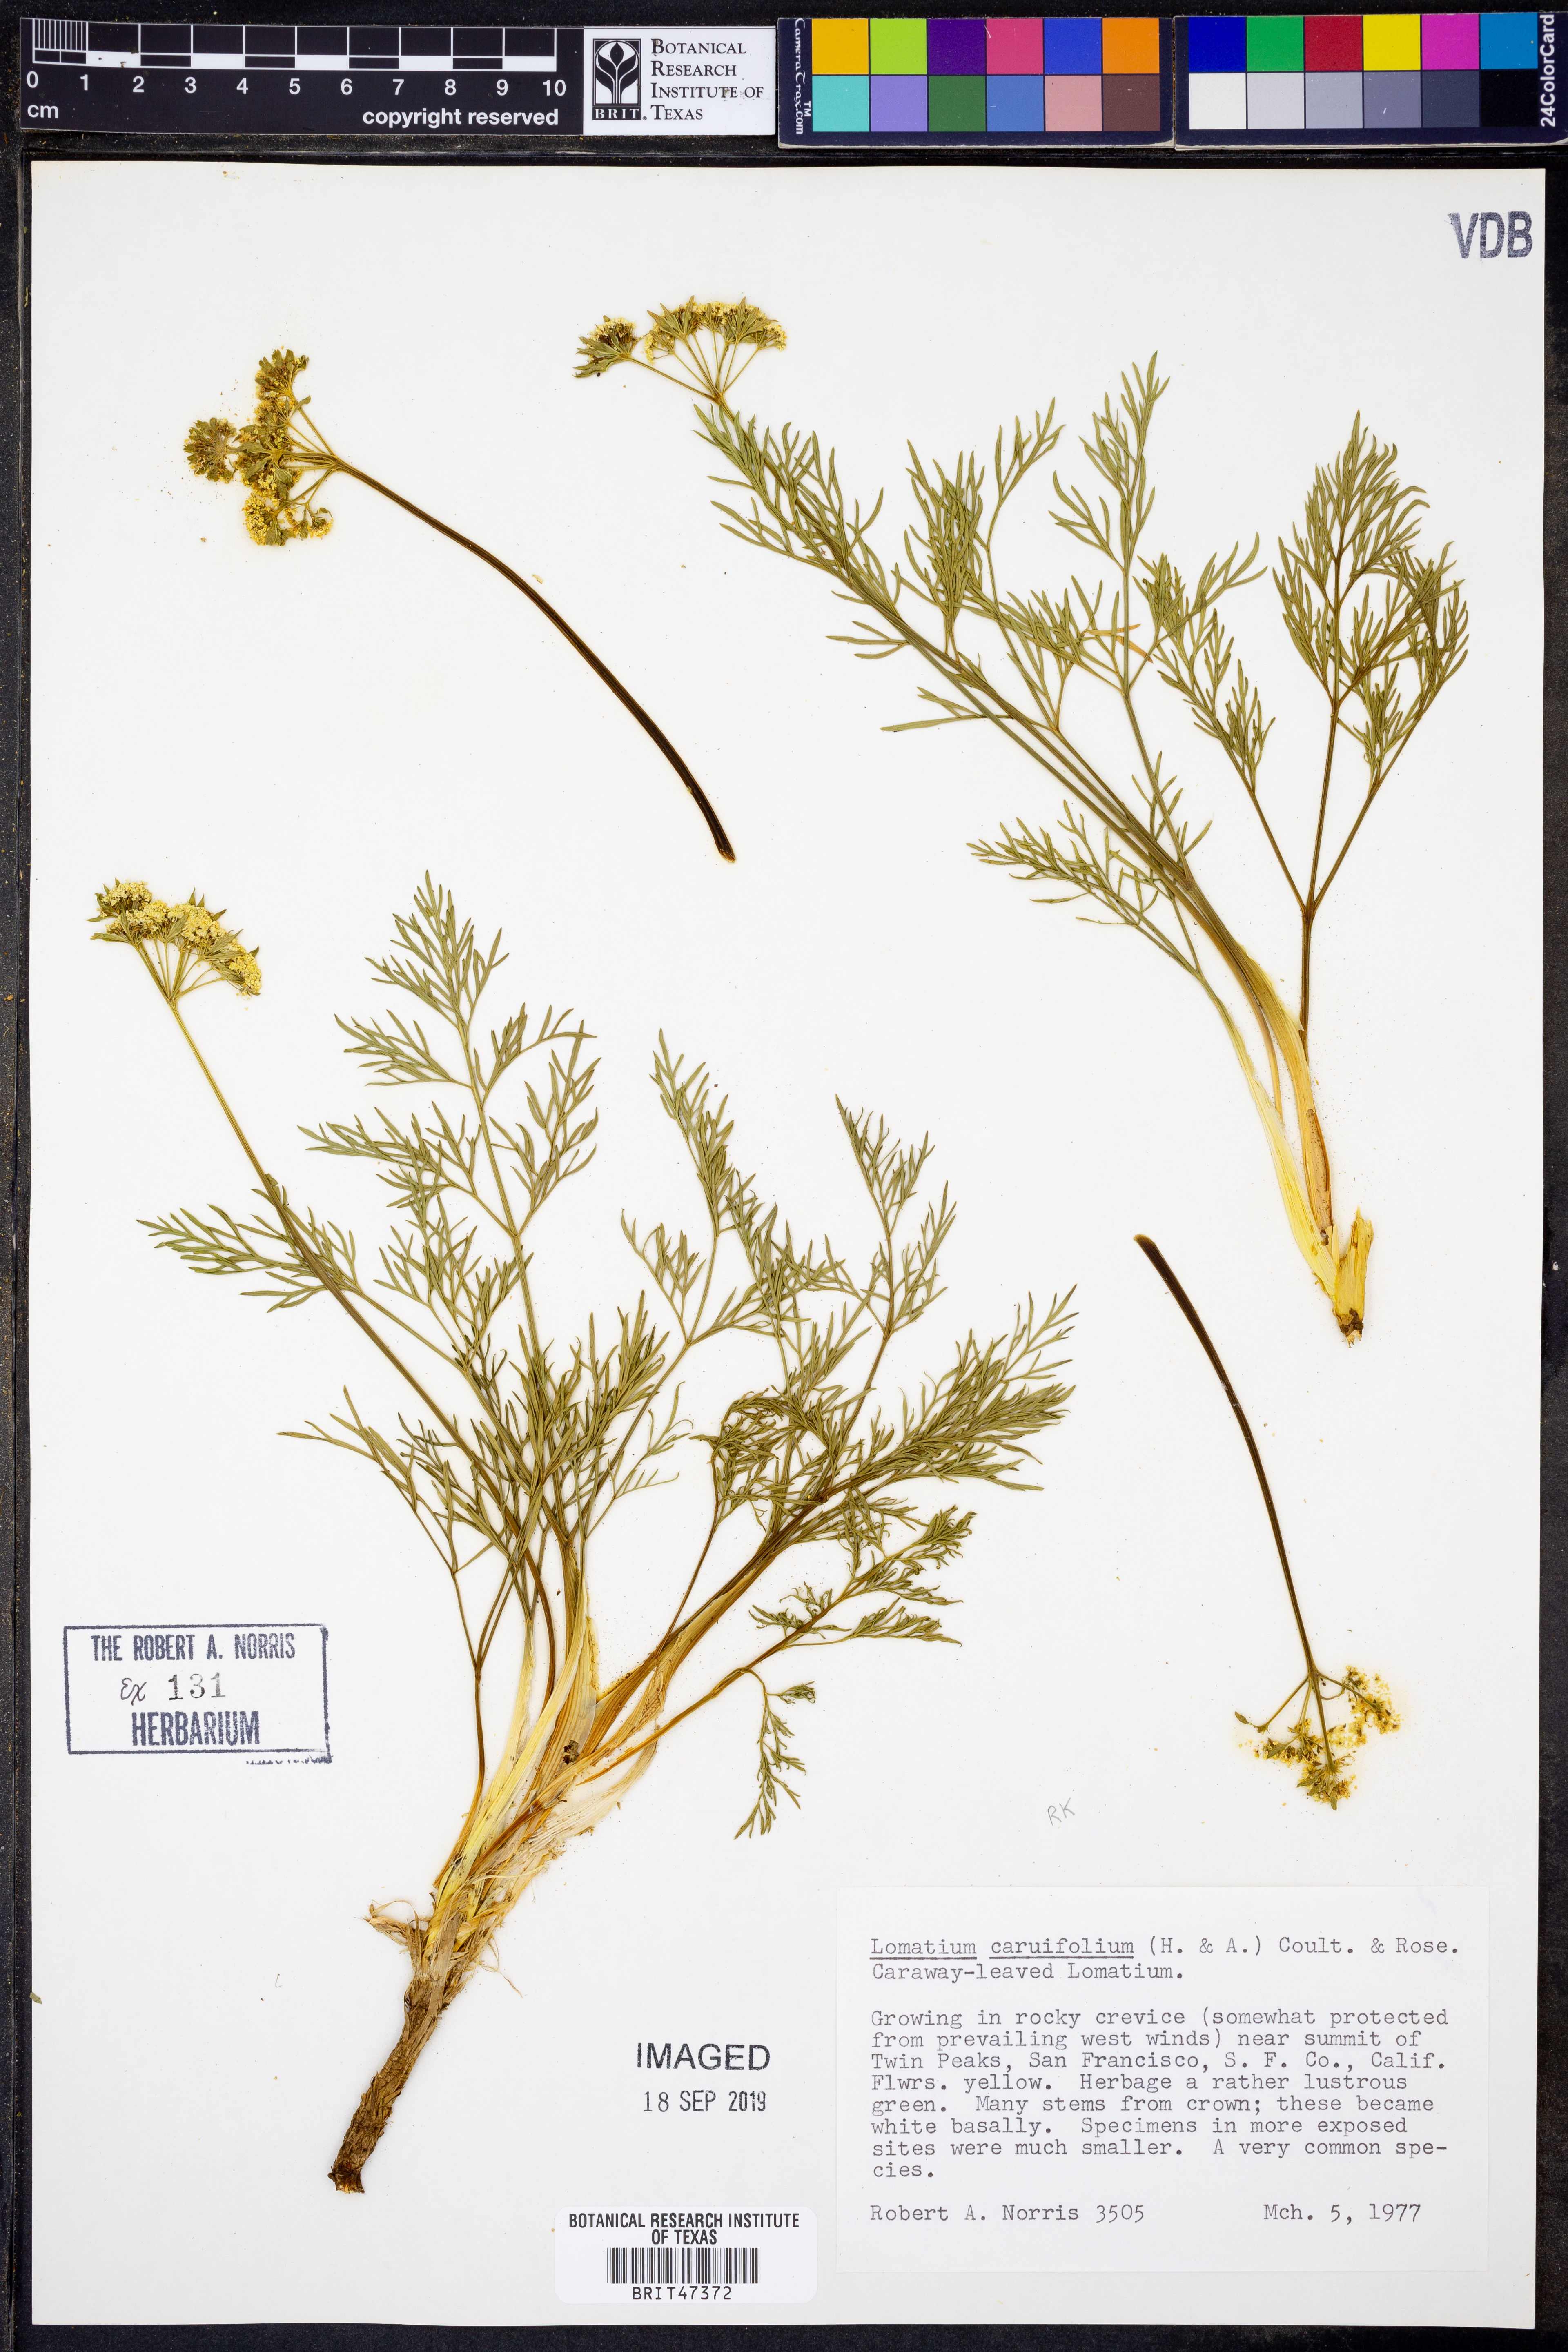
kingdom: Plantae
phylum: Tracheophyta
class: Magnoliopsida
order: Apiales
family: Apiaceae
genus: Lomatium
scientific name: Lomatium caruifolium
